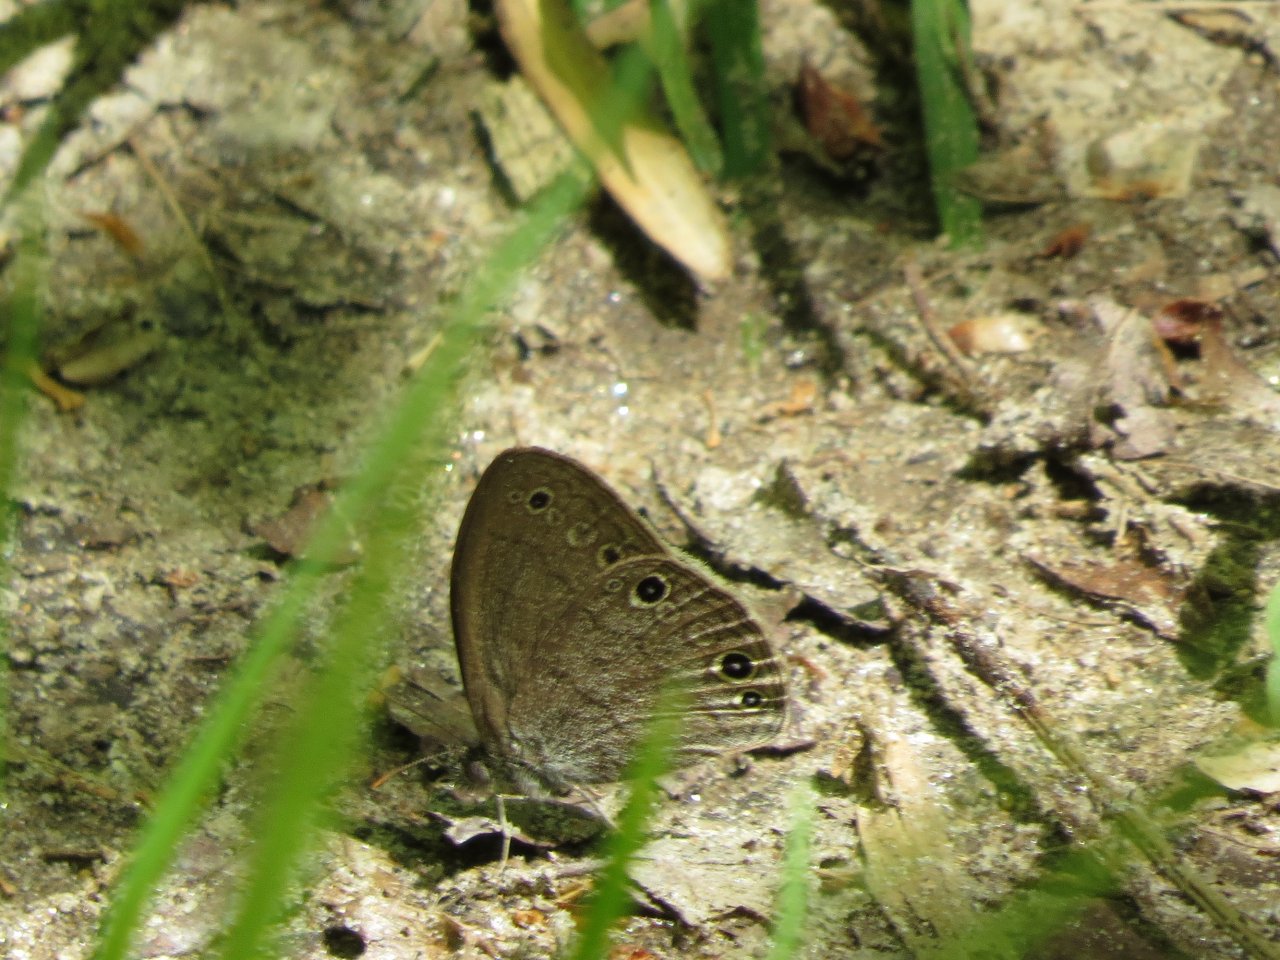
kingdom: Animalia
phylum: Arthropoda
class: Insecta
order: Lepidoptera
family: Nymphalidae
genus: Hermeuptychia
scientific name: Hermeuptychia hermes
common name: Carolina Satyr
